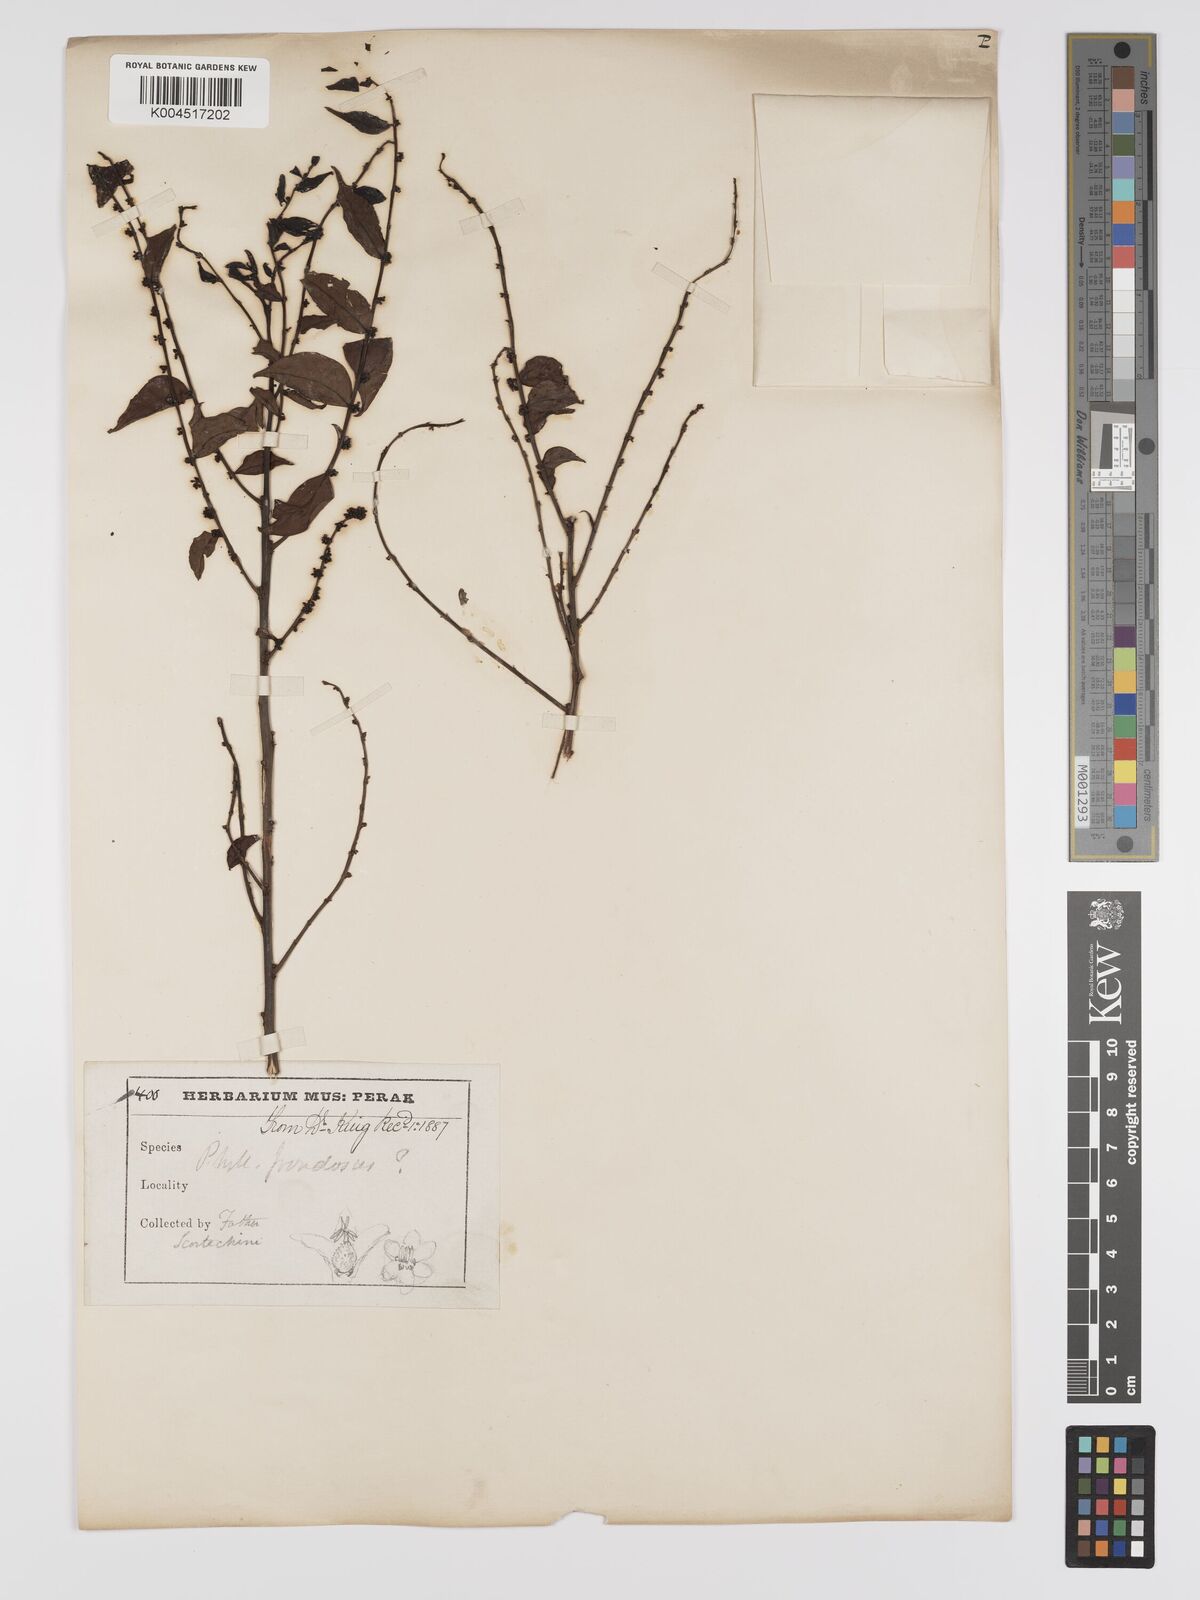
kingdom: Plantae
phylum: Tracheophyta
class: Magnoliopsida
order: Malpighiales
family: Phyllanthaceae
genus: Phyllanthus
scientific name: Phyllanthus
